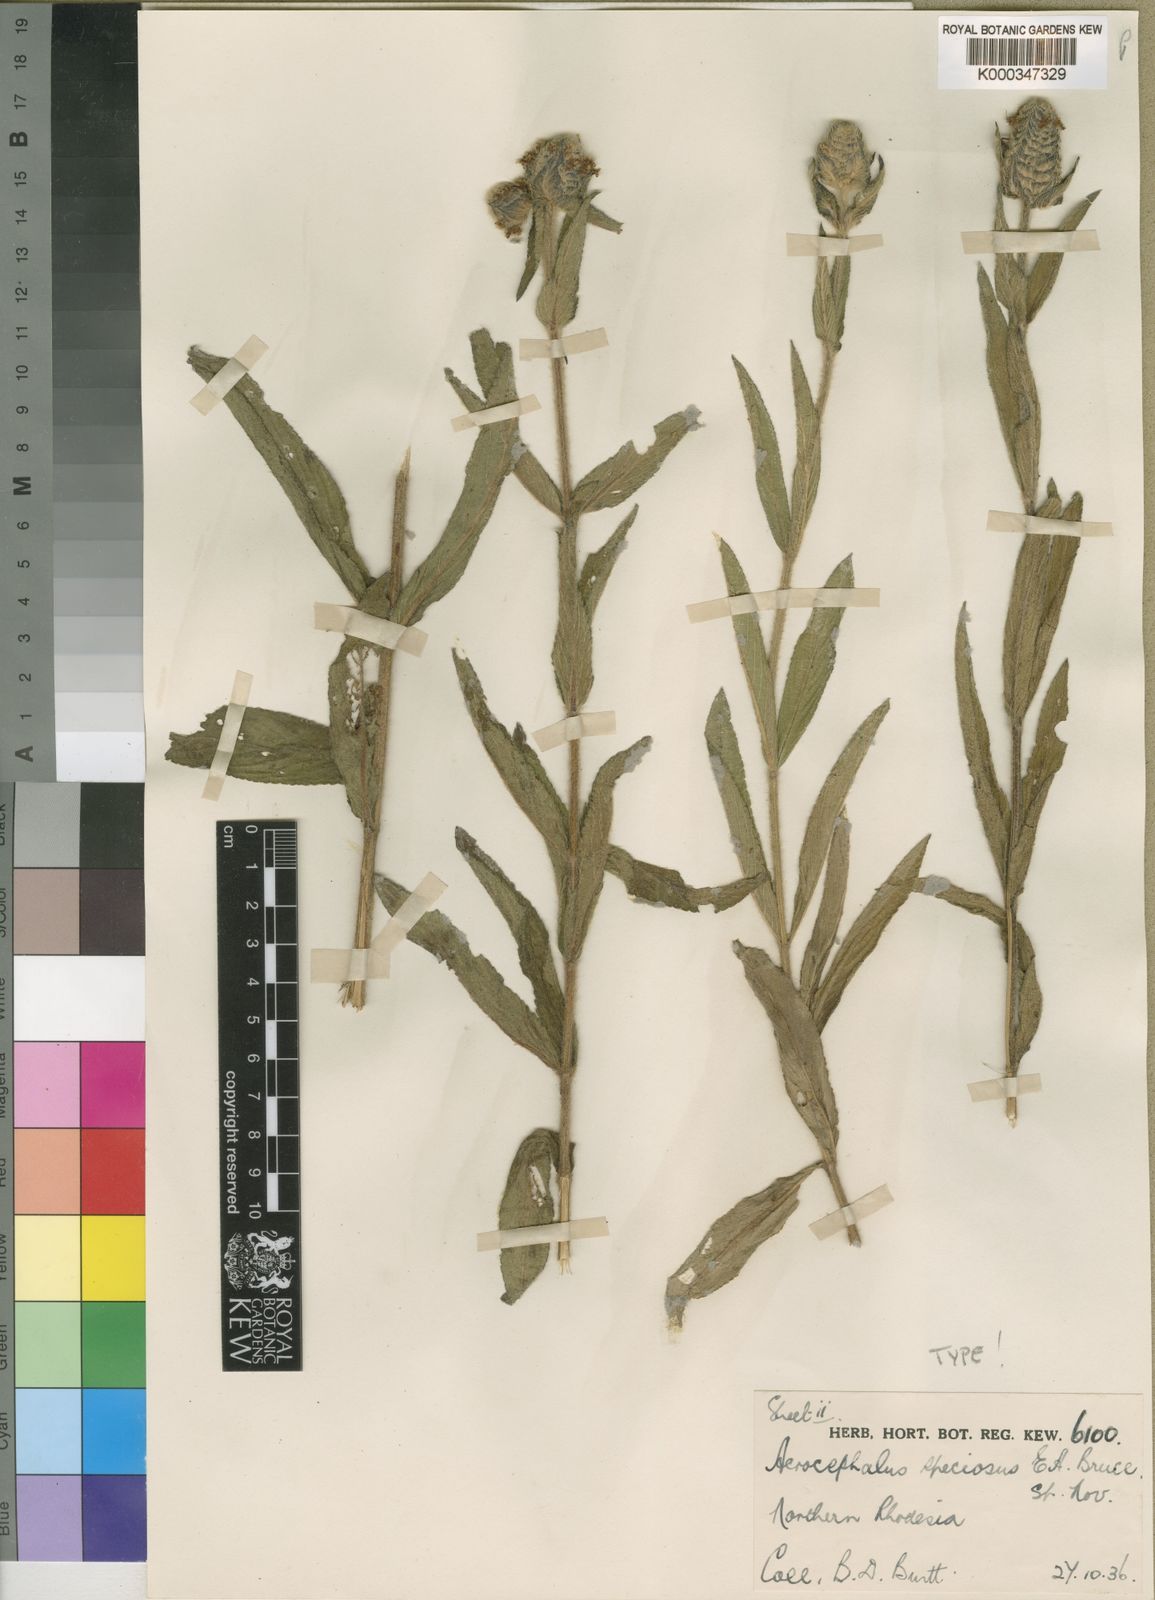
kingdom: Plantae
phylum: Tracheophyta
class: Magnoliopsida
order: Lamiales
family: Lamiaceae
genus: Haumaniastrum
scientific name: Haumaniastrum speciosum
